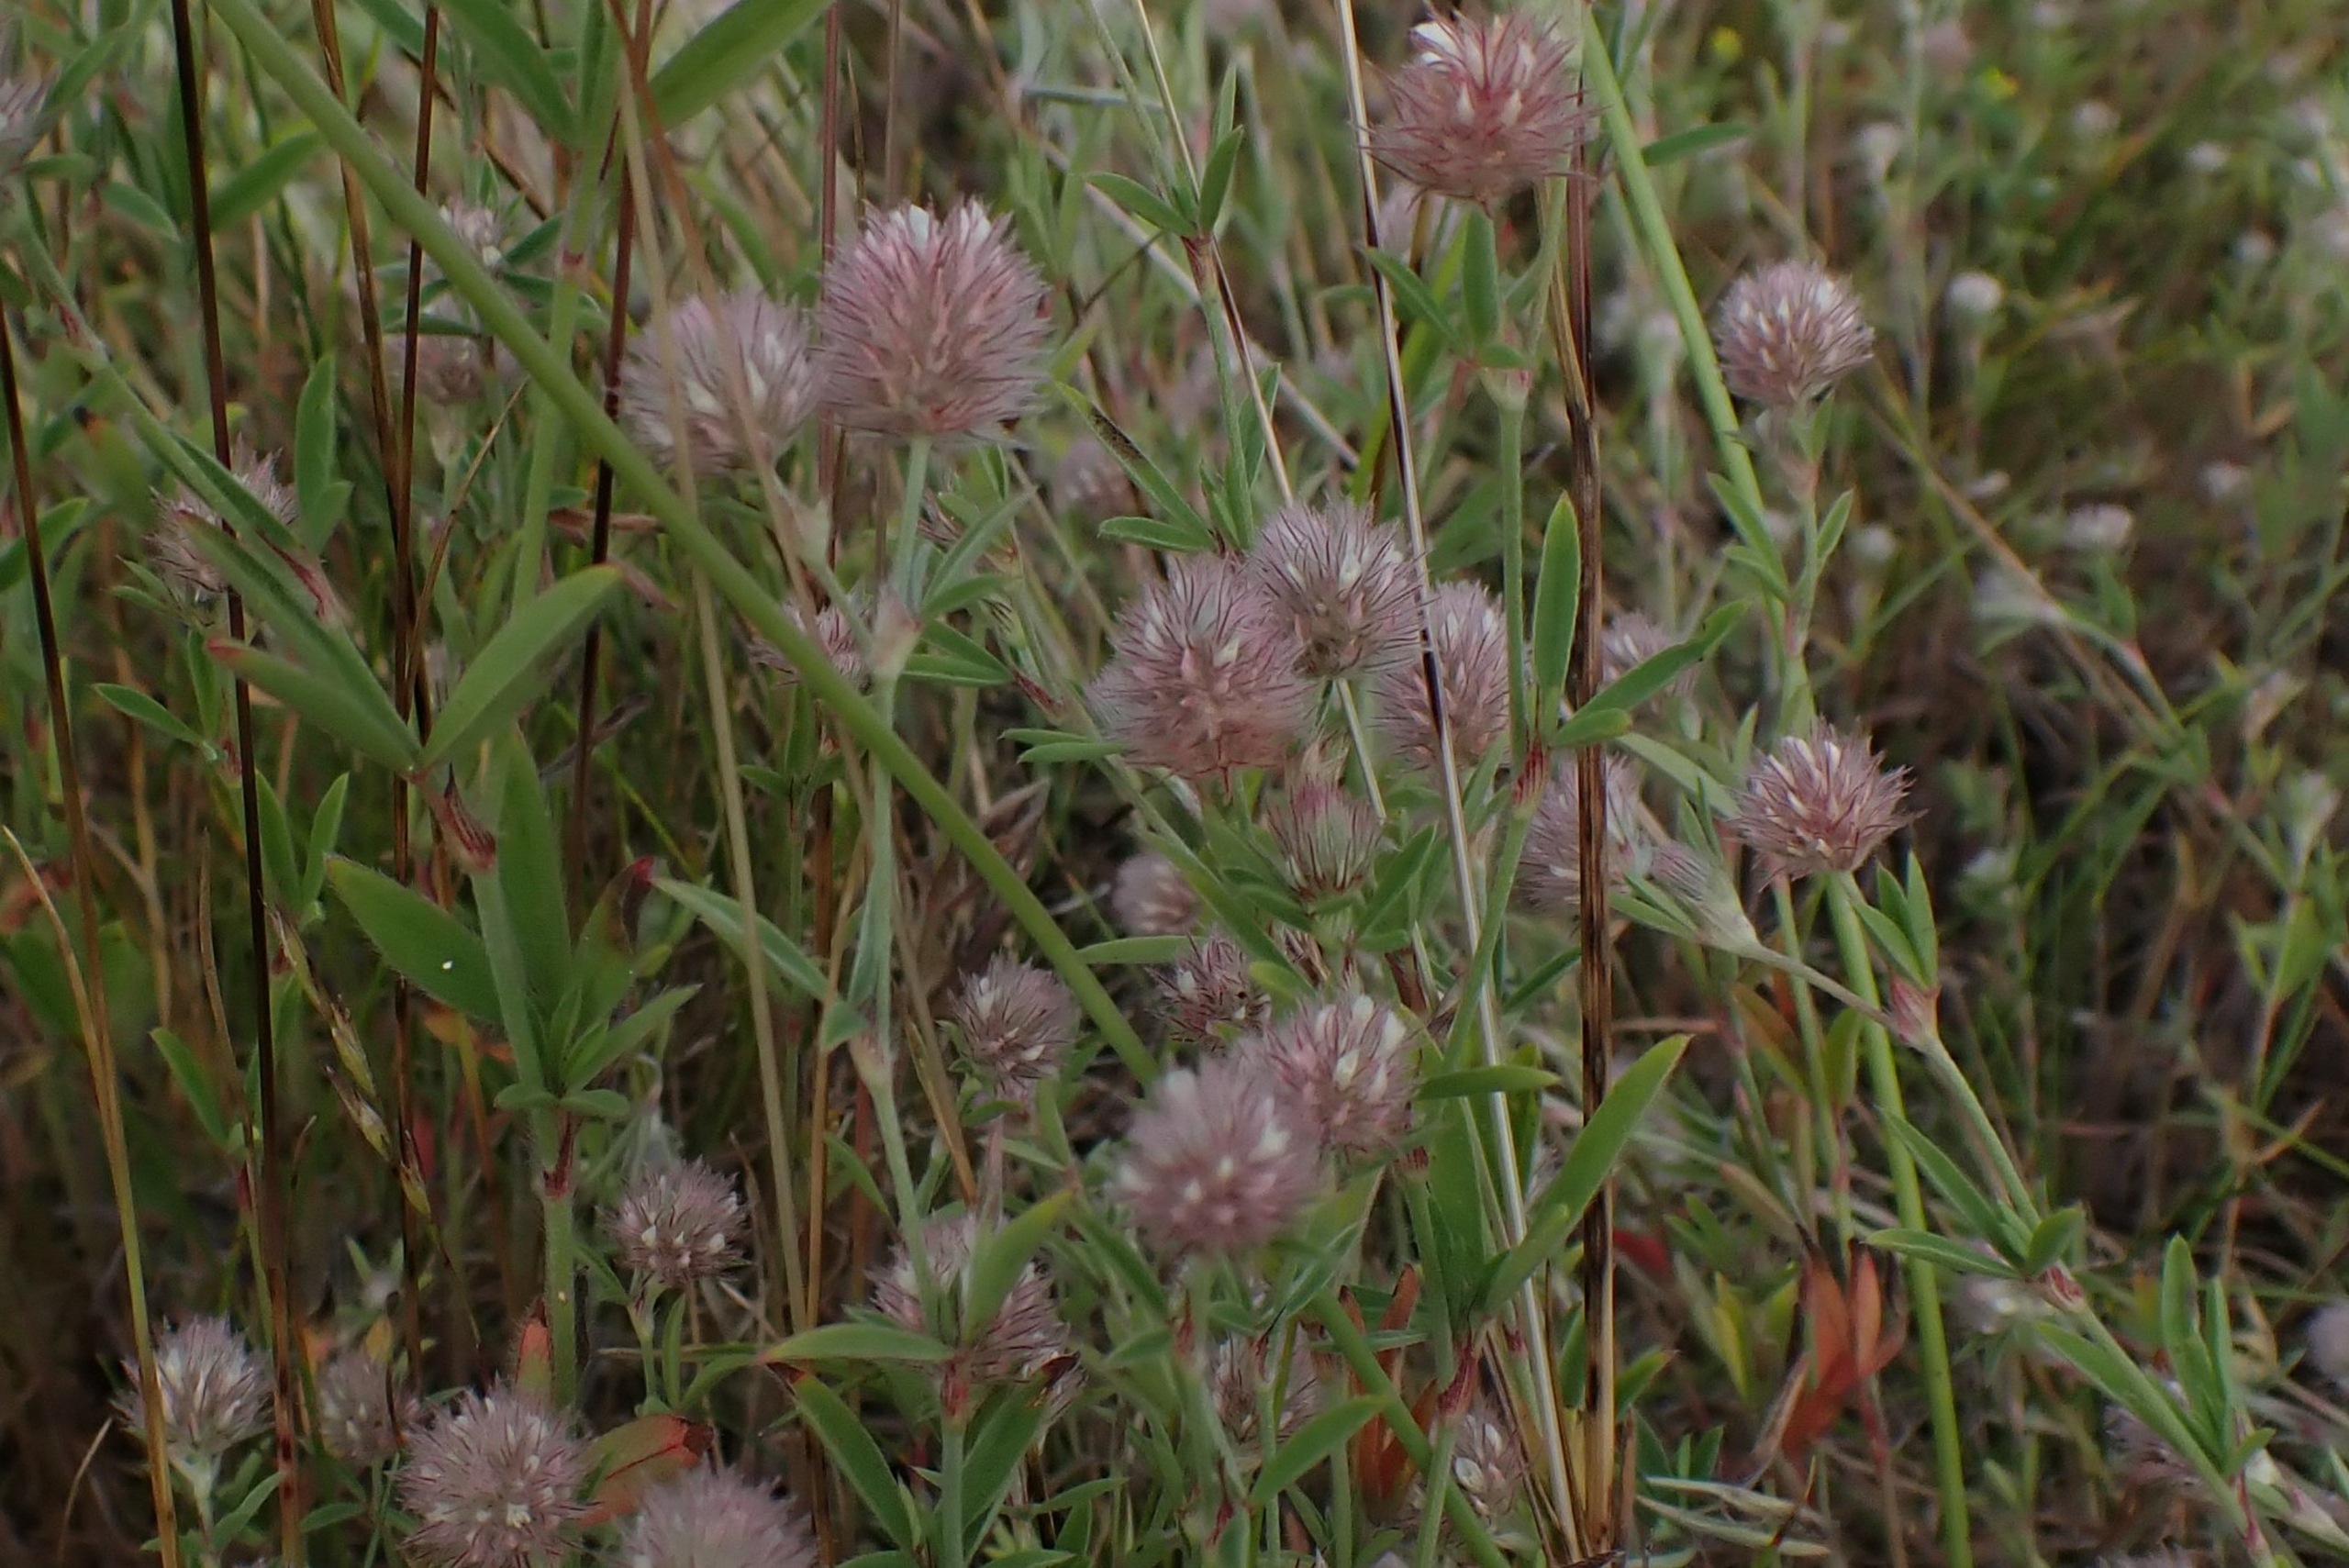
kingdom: Plantae
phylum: Tracheophyta
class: Magnoliopsida
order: Fabales
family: Fabaceae
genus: Trifolium
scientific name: Trifolium arvense
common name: Hare-kløver
